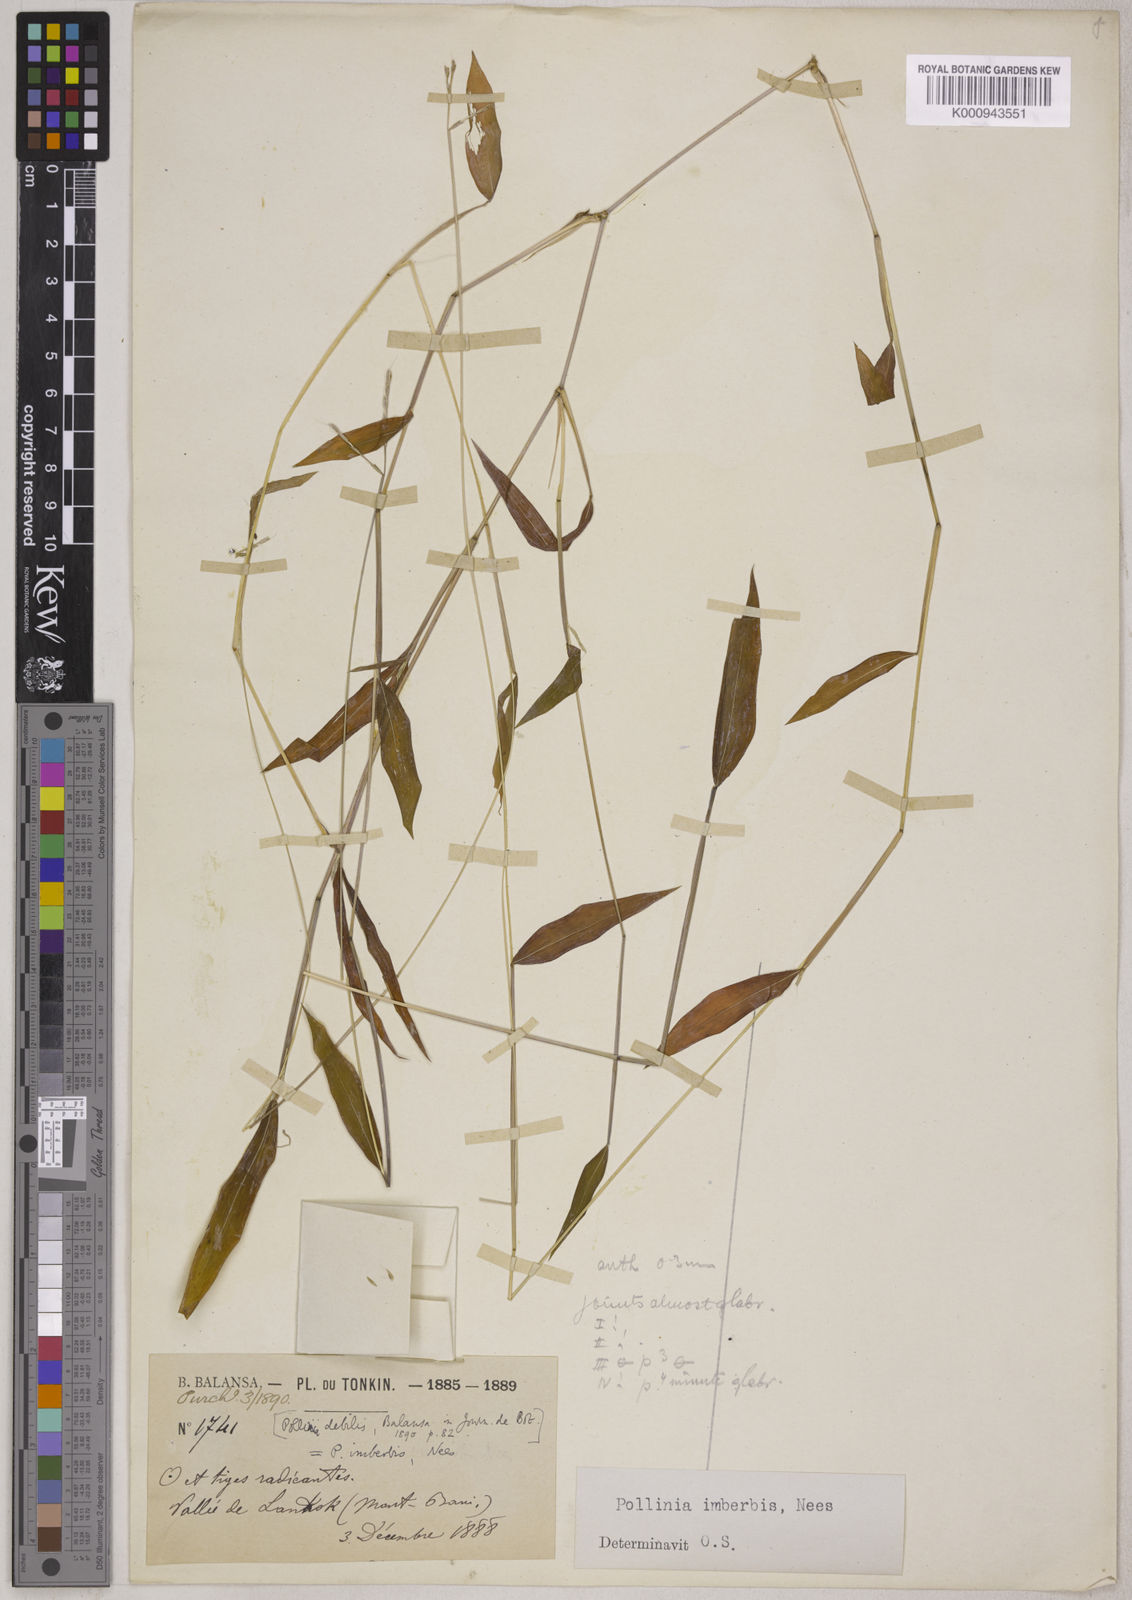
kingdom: Plantae
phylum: Tracheophyta
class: Liliopsida
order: Poales
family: Poaceae
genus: Microstegium
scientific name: Microstegium vimineum
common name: Japanese stiltgrass
